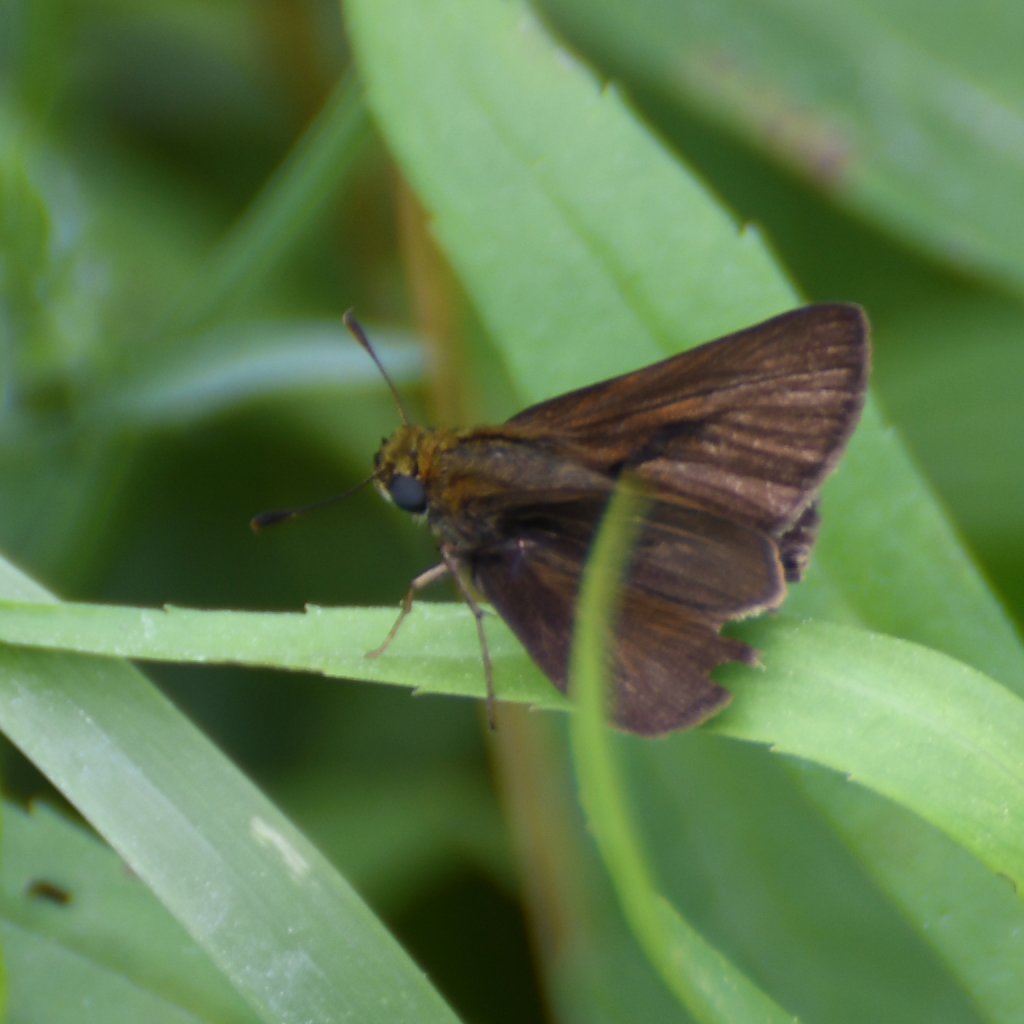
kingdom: Animalia
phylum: Arthropoda
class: Insecta
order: Lepidoptera
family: Hesperiidae
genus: Euphyes
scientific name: Euphyes vestris
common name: Dun Skipper
